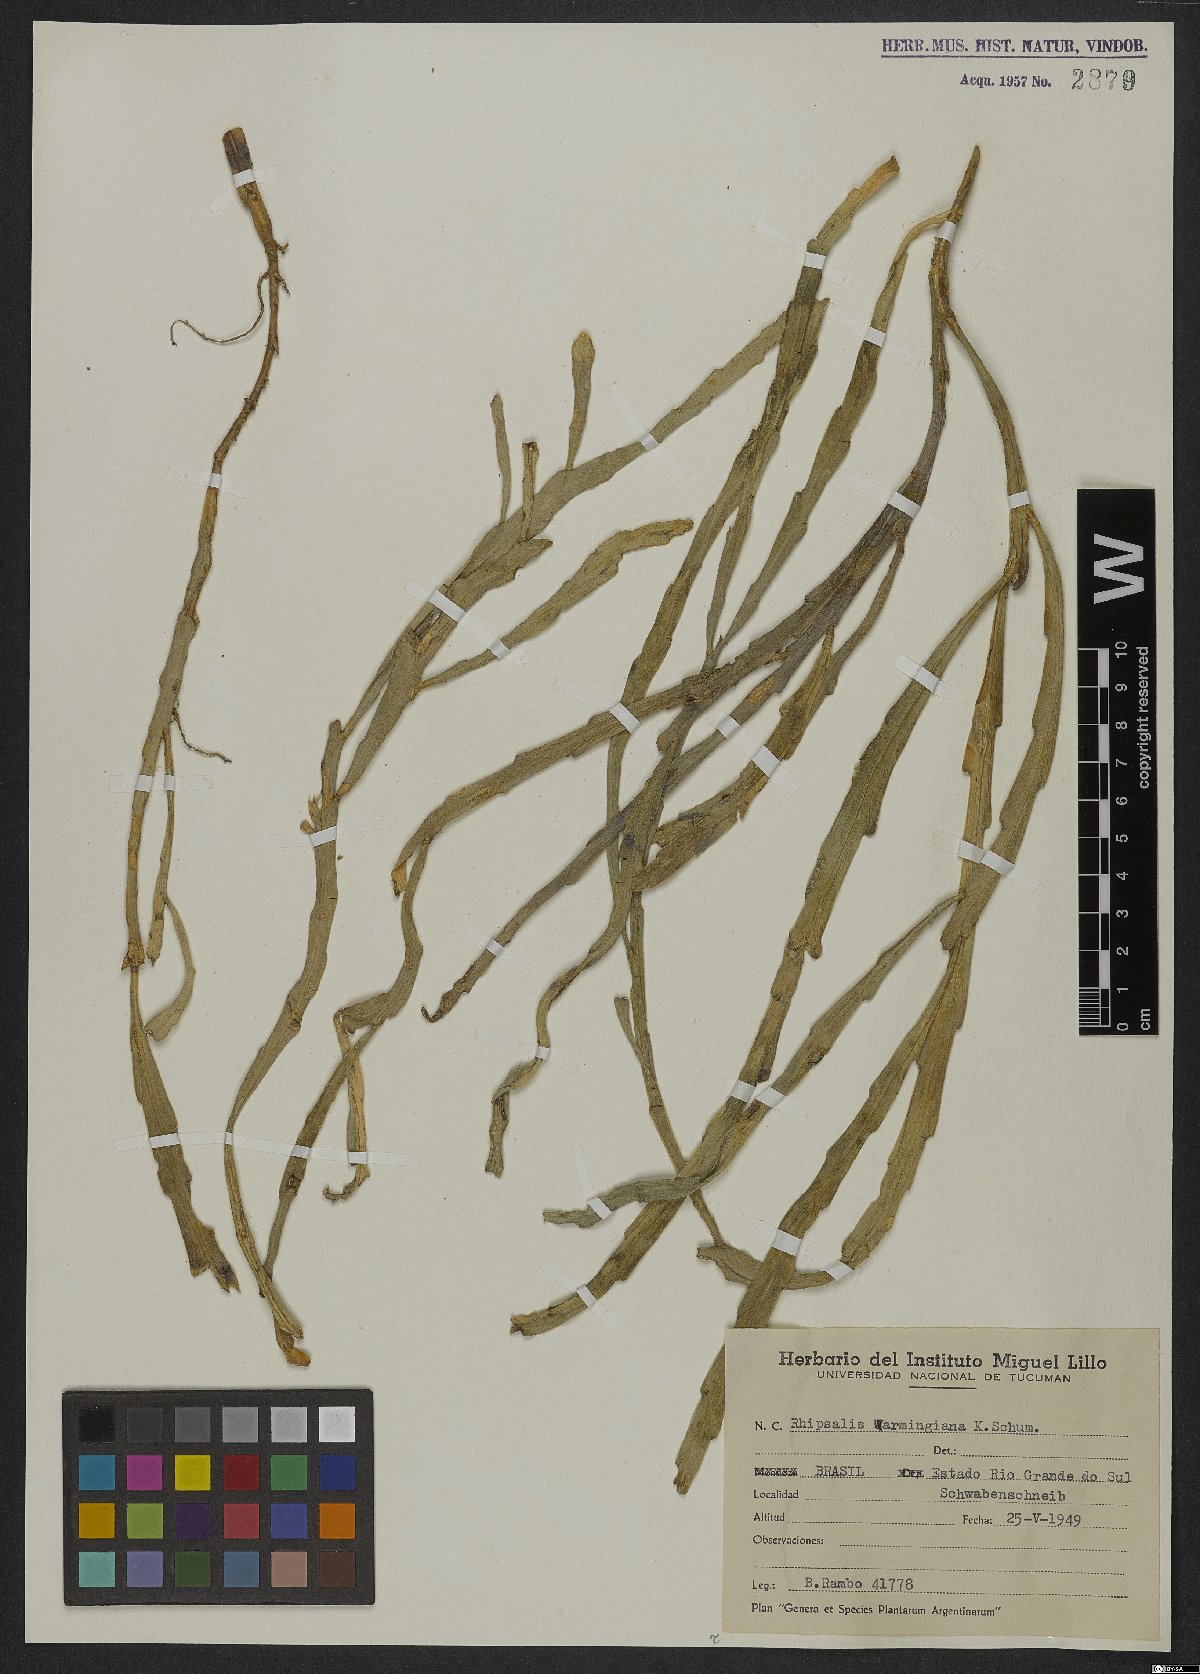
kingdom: Plantae
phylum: Tracheophyta
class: Magnoliopsida
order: Caryophyllales
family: Cactaceae
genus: Lepismium
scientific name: Lepismium warmingianum
